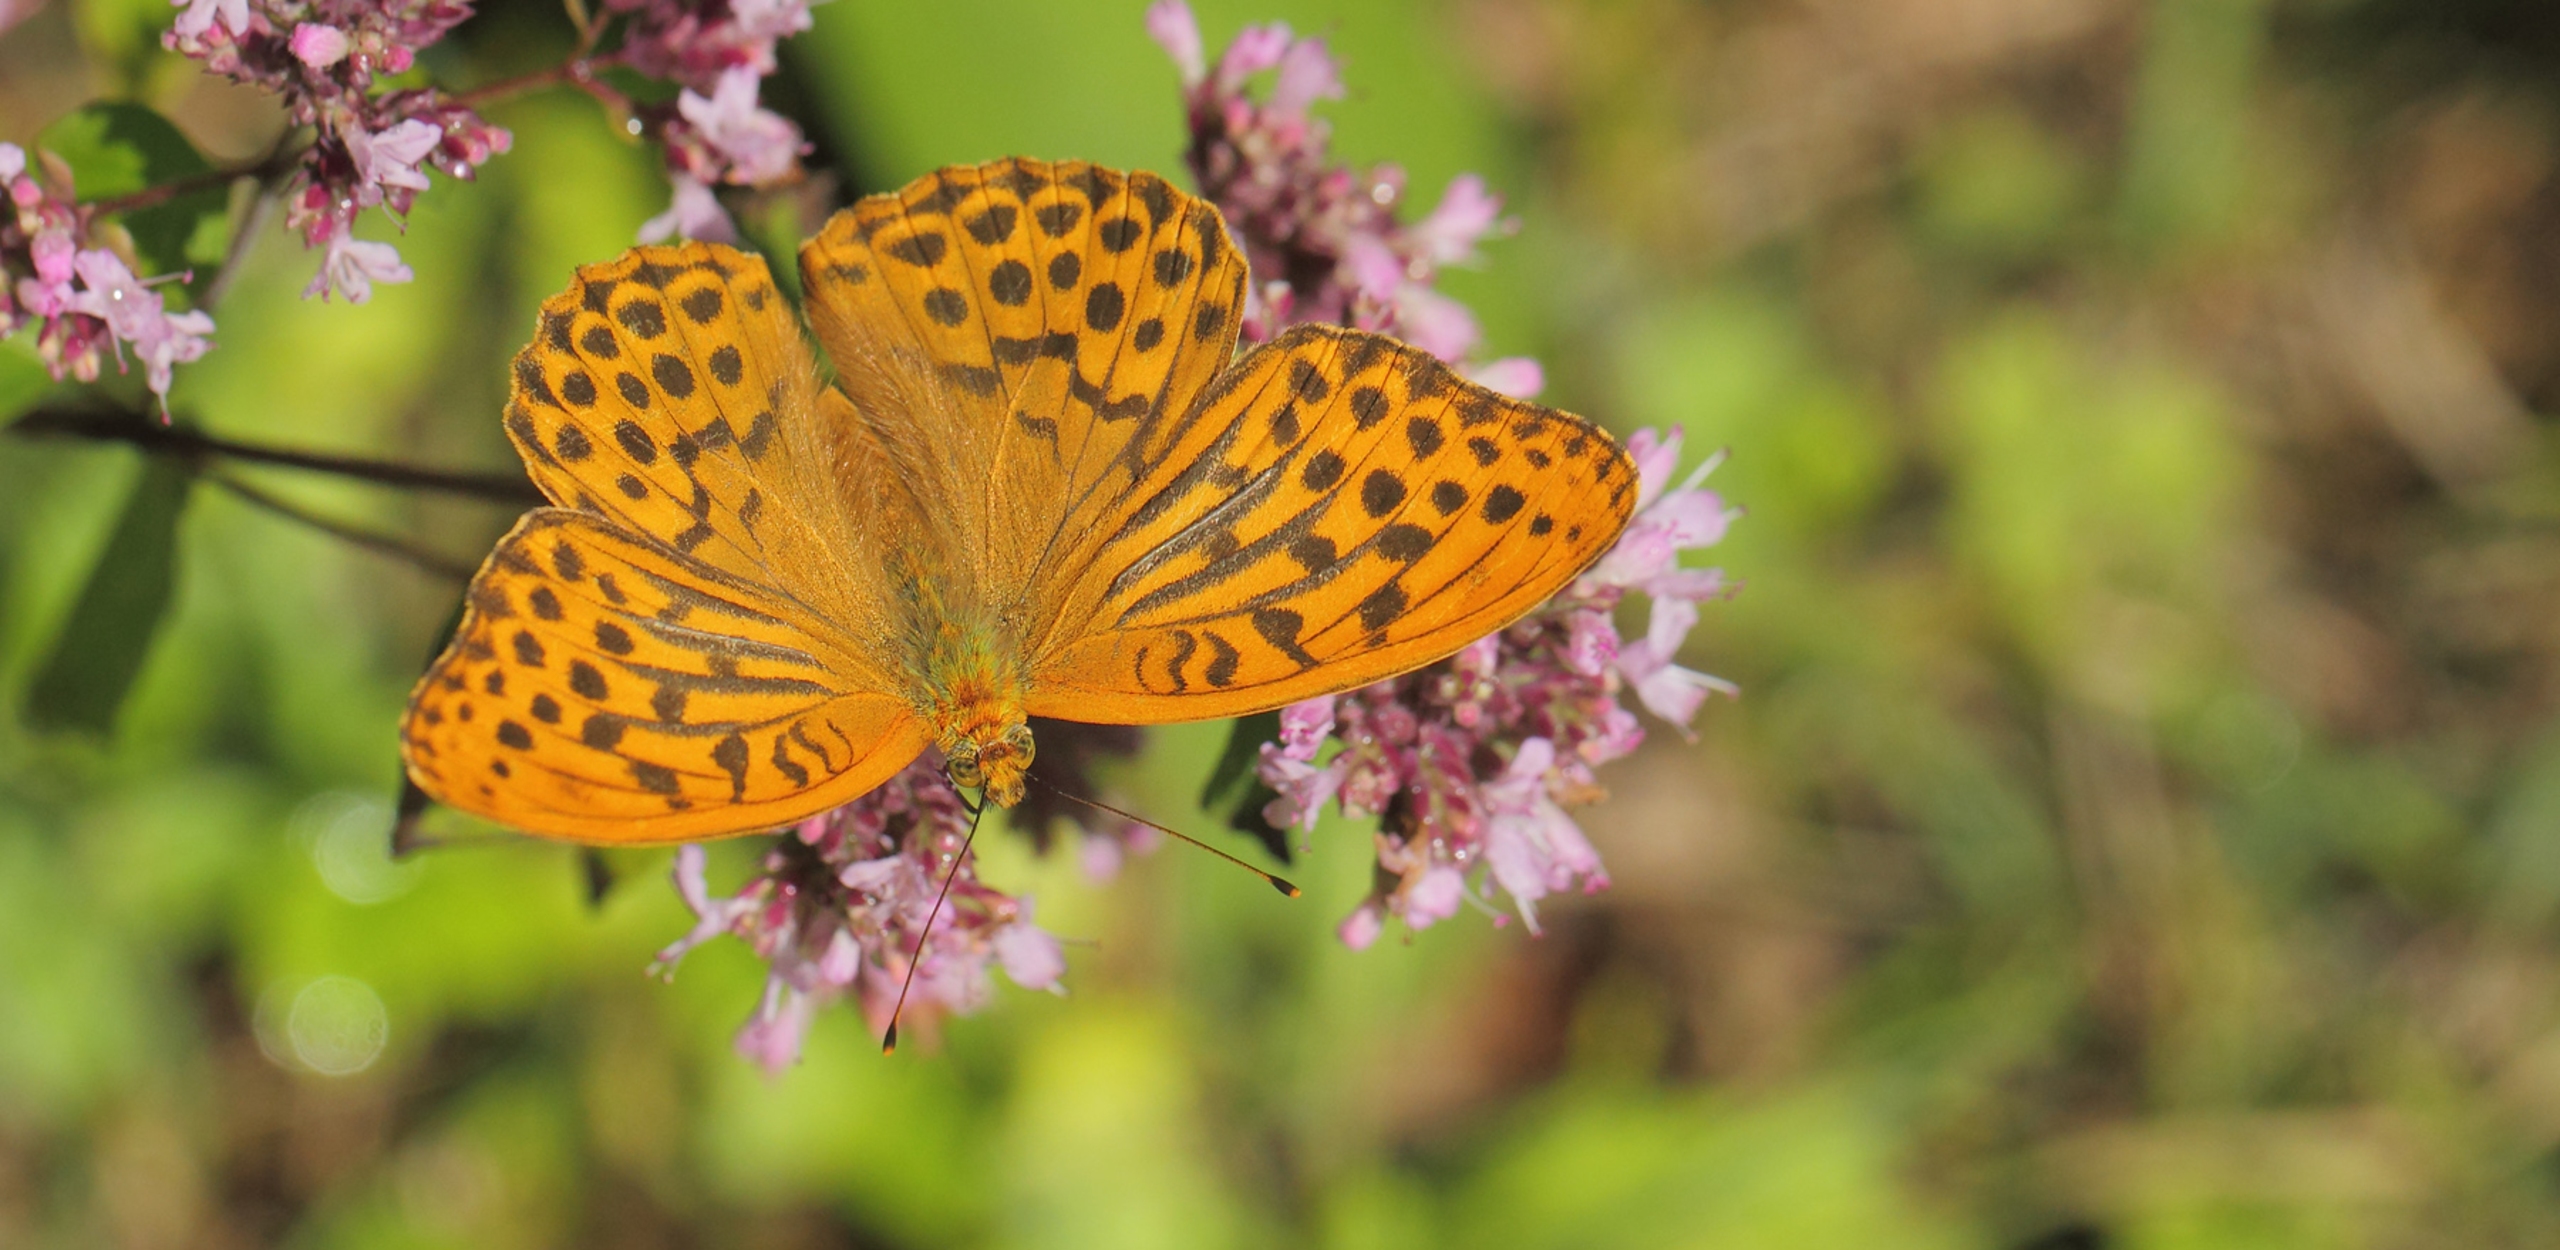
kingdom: Animalia
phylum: Arthropoda
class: Insecta
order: Lepidoptera
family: Nymphalidae
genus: Argynnis
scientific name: Argynnis paphia
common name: Kejserkåbe
